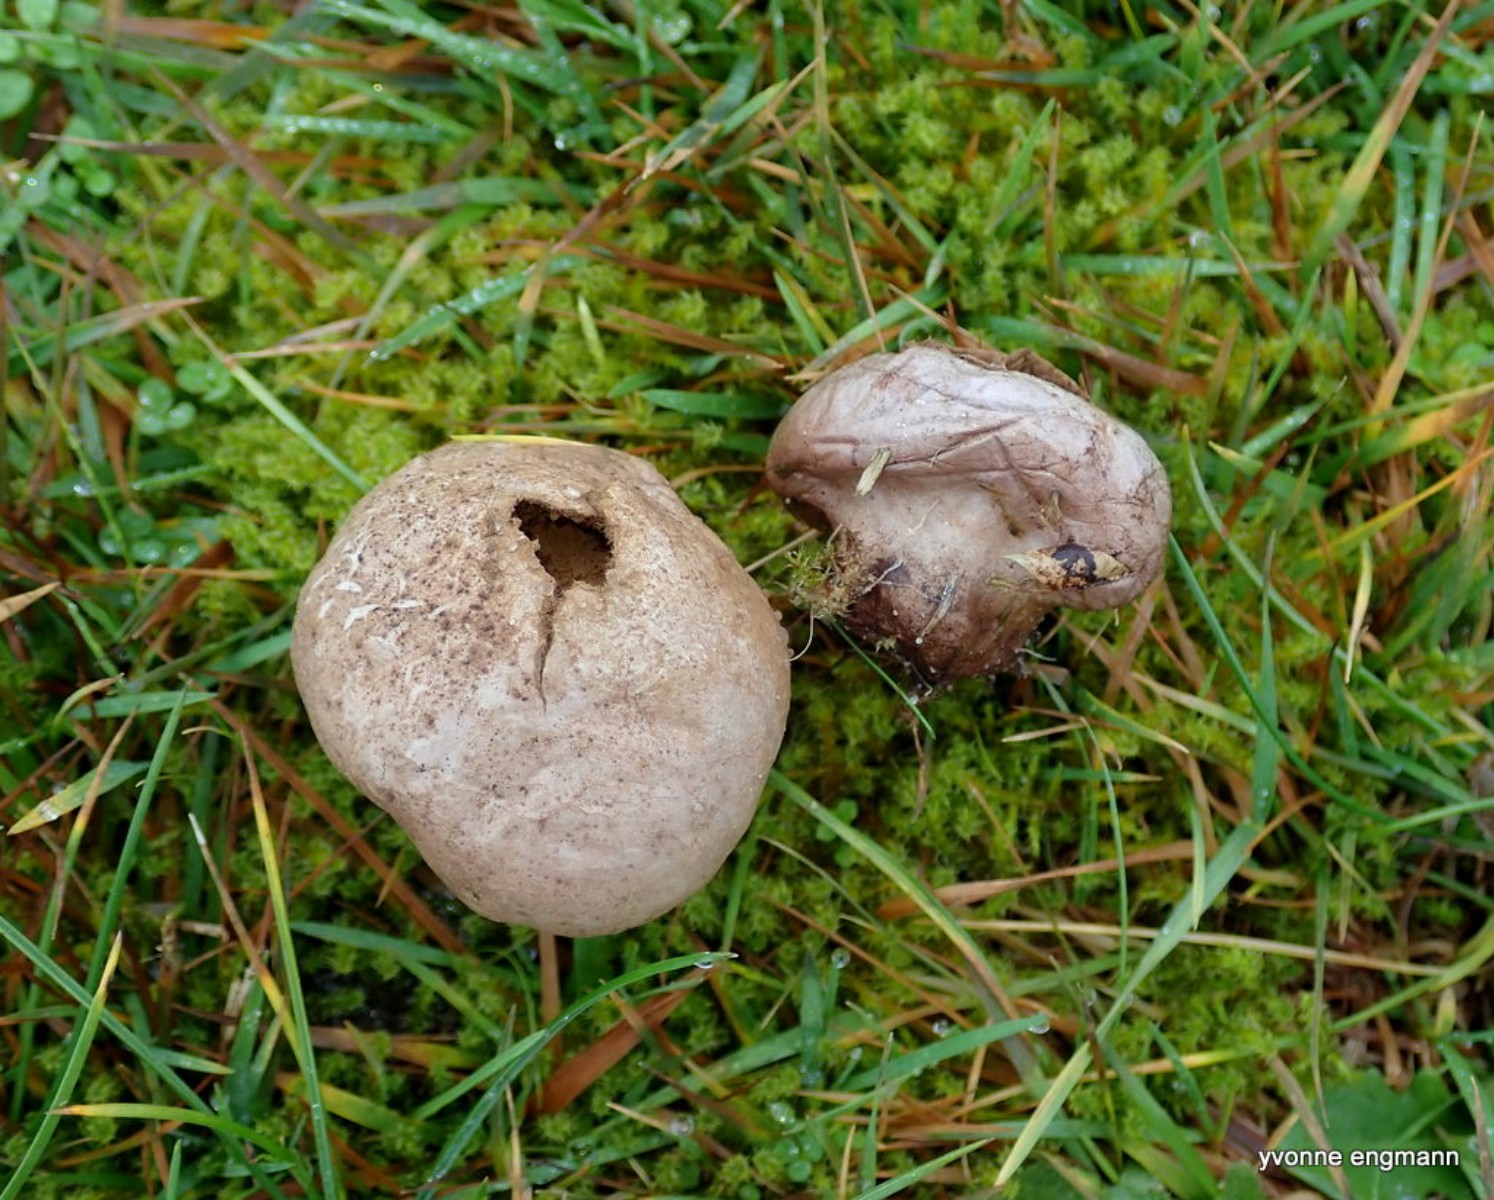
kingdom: Fungi
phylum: Basidiomycota
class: Agaricomycetes
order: Agaricales
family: Lycoperdaceae
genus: Lycoperdon
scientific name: Lycoperdon lividum
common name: mark-støvbold
